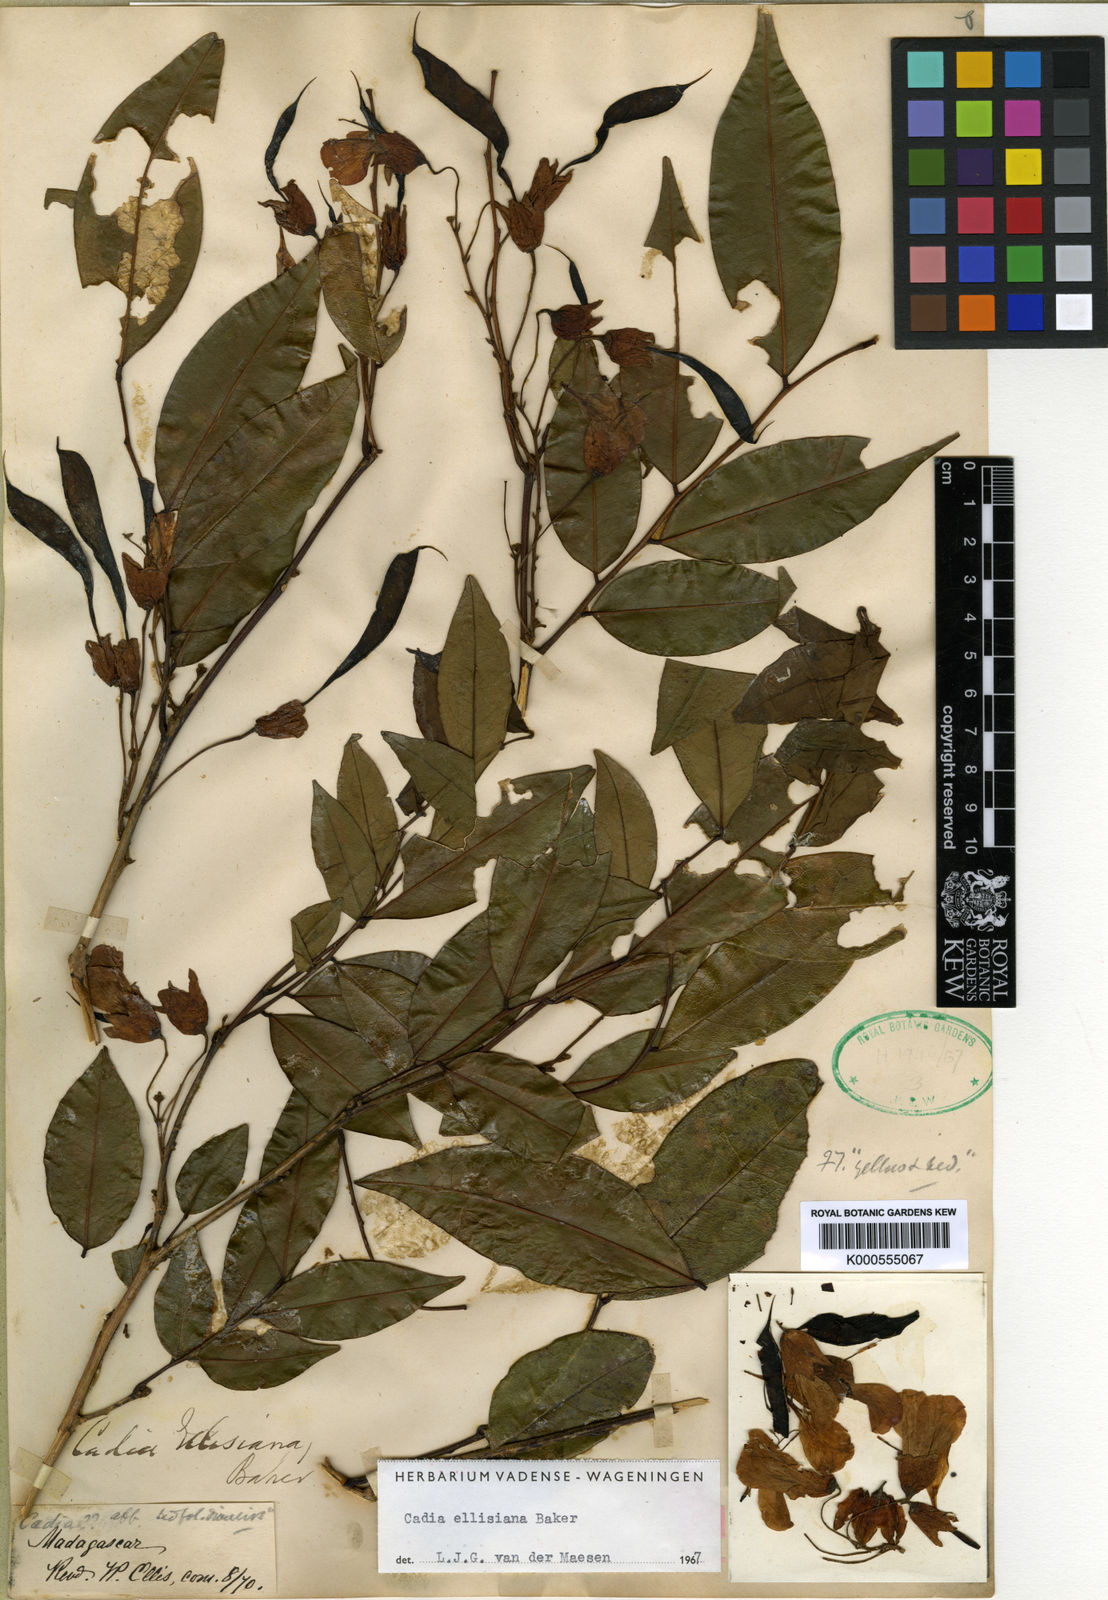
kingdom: Plantae
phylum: Tracheophyta
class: Magnoliopsida
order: Fabales
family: Fabaceae
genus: Cadia
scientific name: Cadia ellisiana
